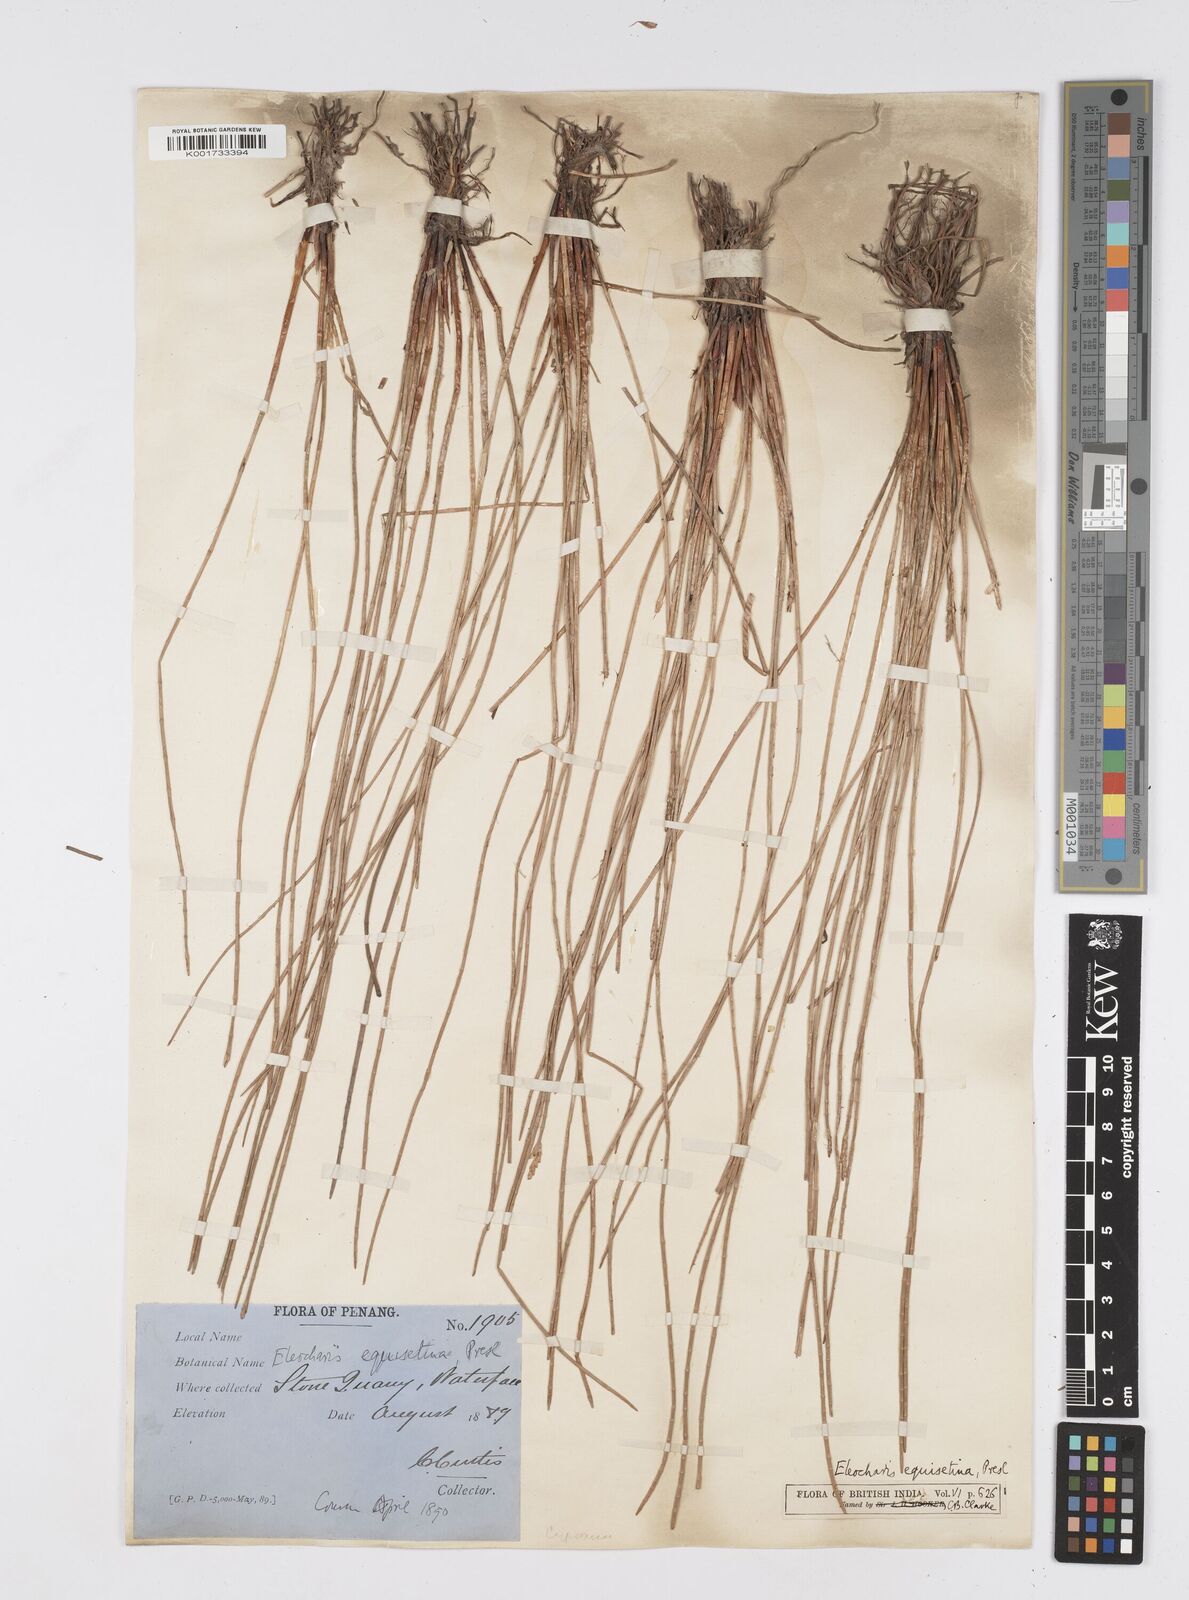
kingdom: Plantae
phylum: Tracheophyta
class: Liliopsida
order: Poales
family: Cyperaceae
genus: Eleocharis
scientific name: Eleocharis dulcis
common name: Chinese water chestnut
